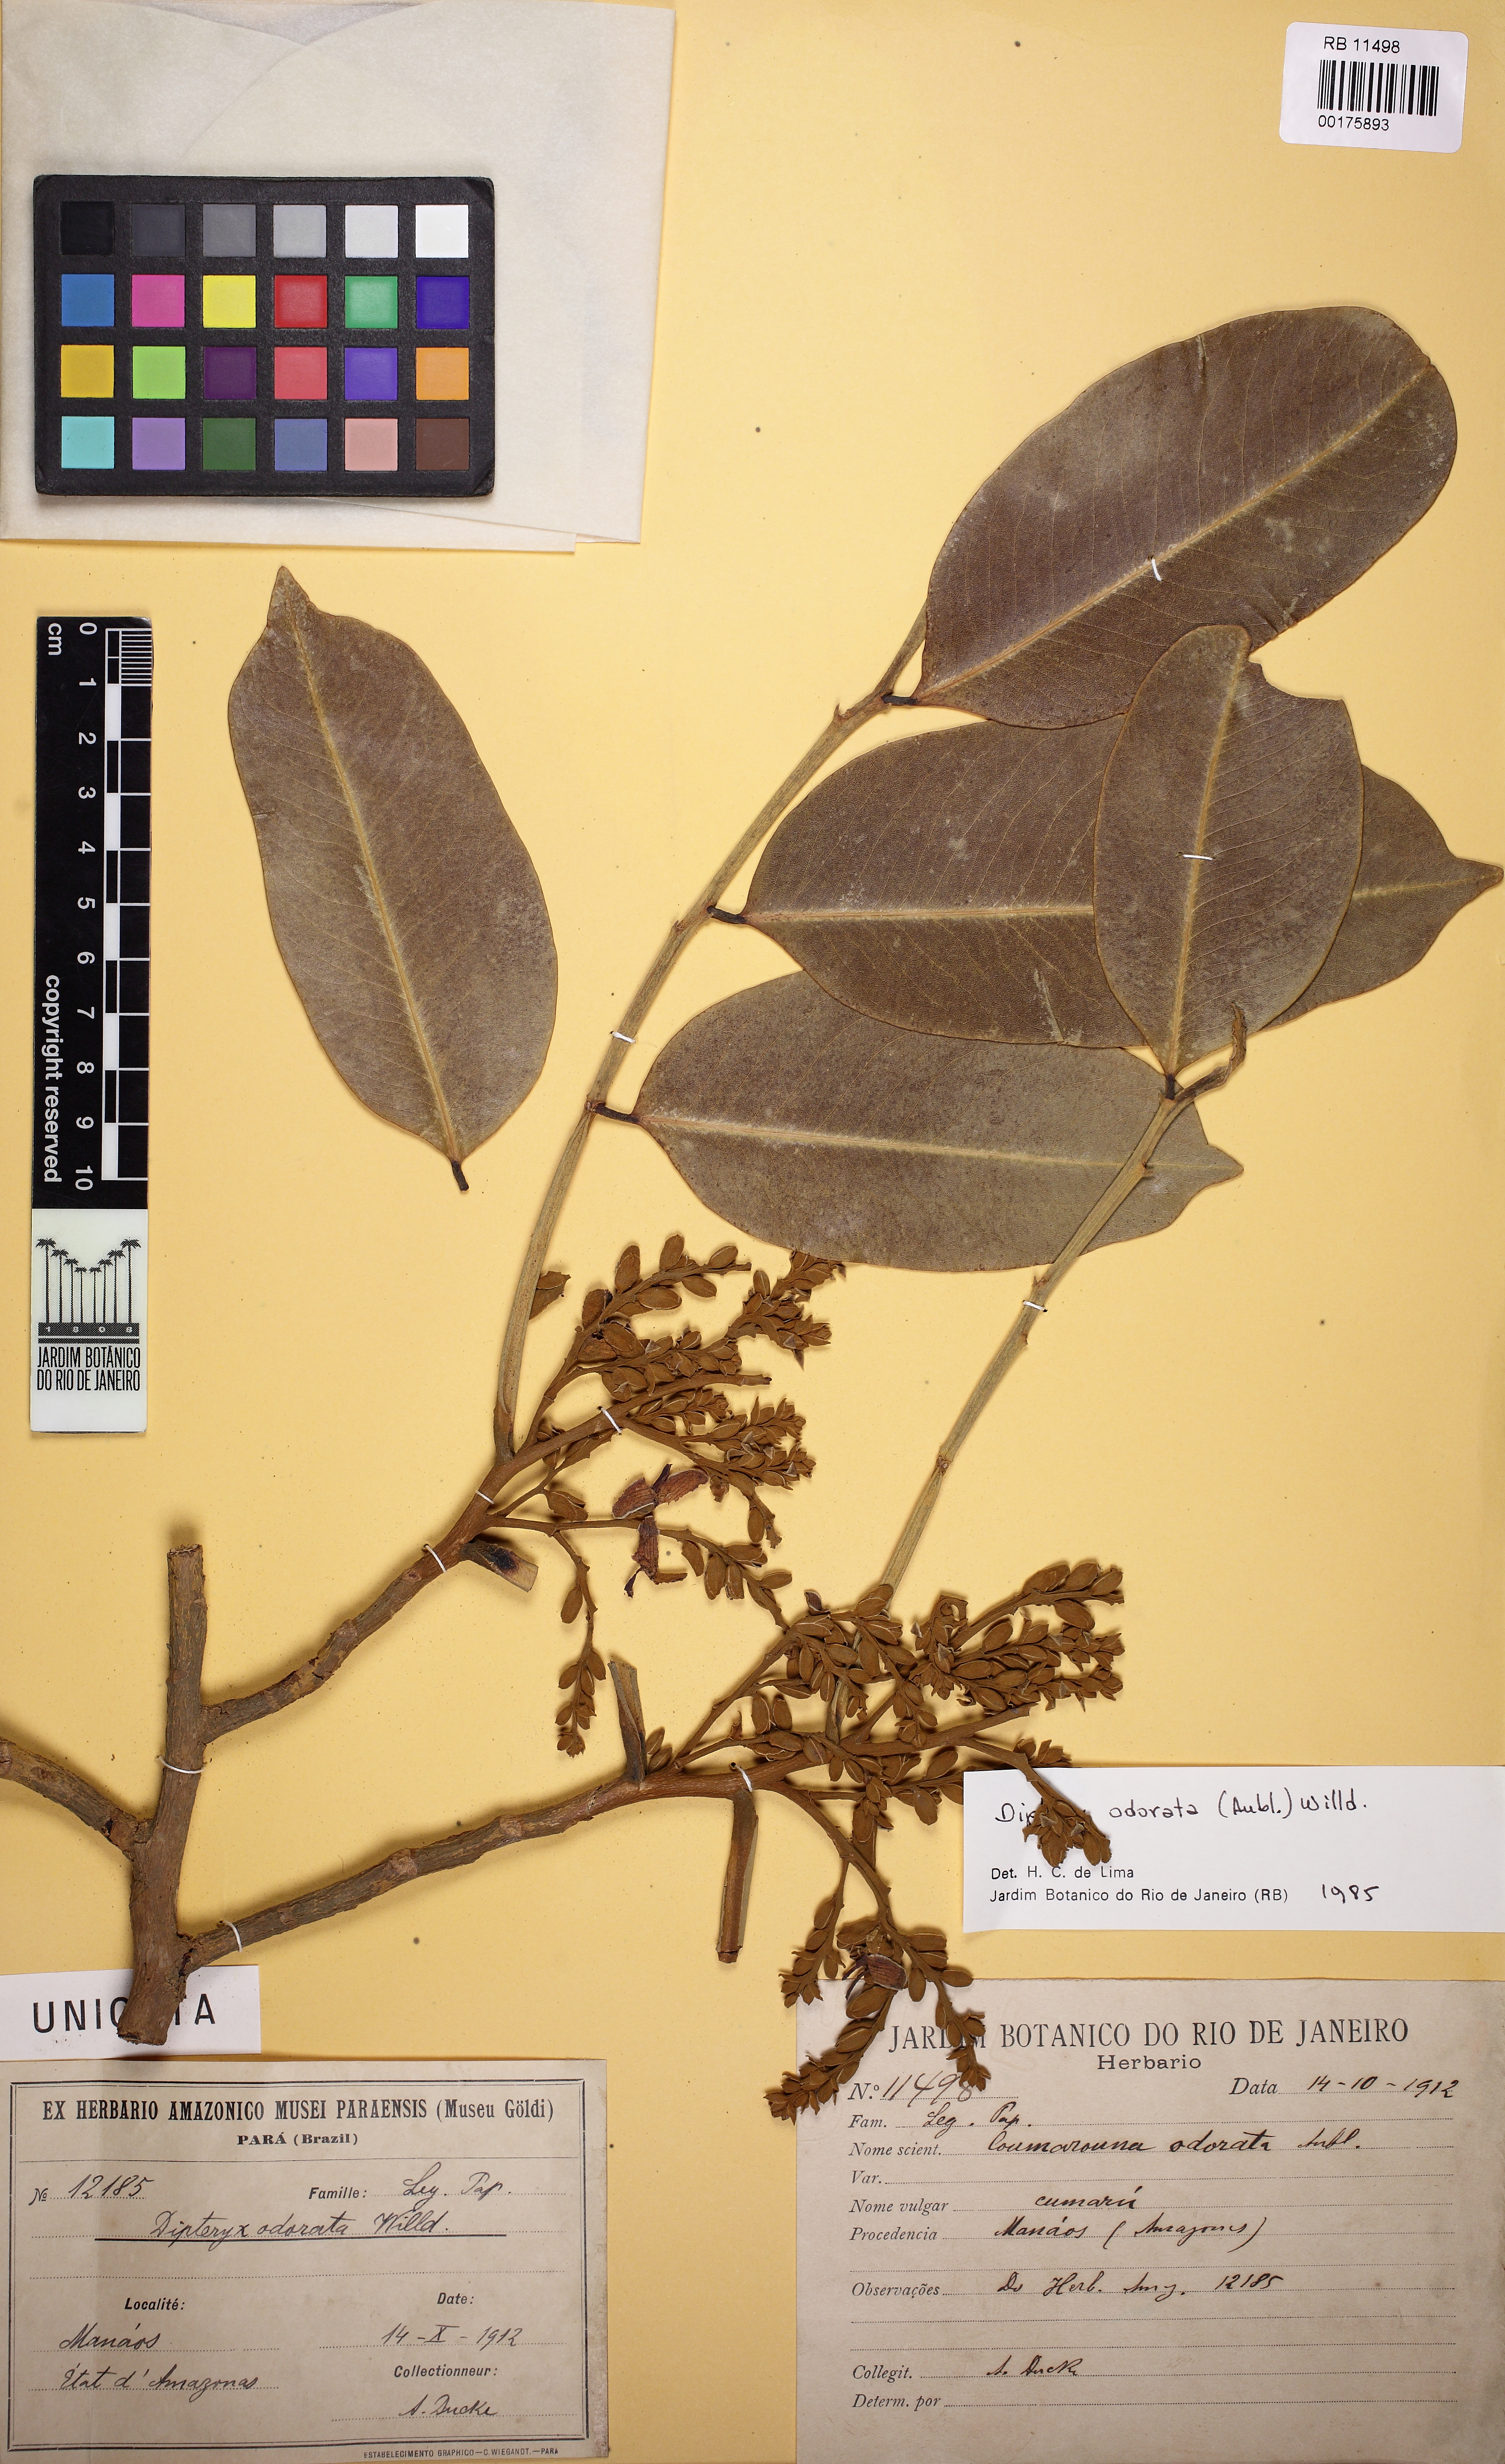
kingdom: Plantae
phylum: Tracheophyta
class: Magnoliopsida
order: Fabales
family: Fabaceae
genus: Dipteryx
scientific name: Dipteryx odorata
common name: Tonka
